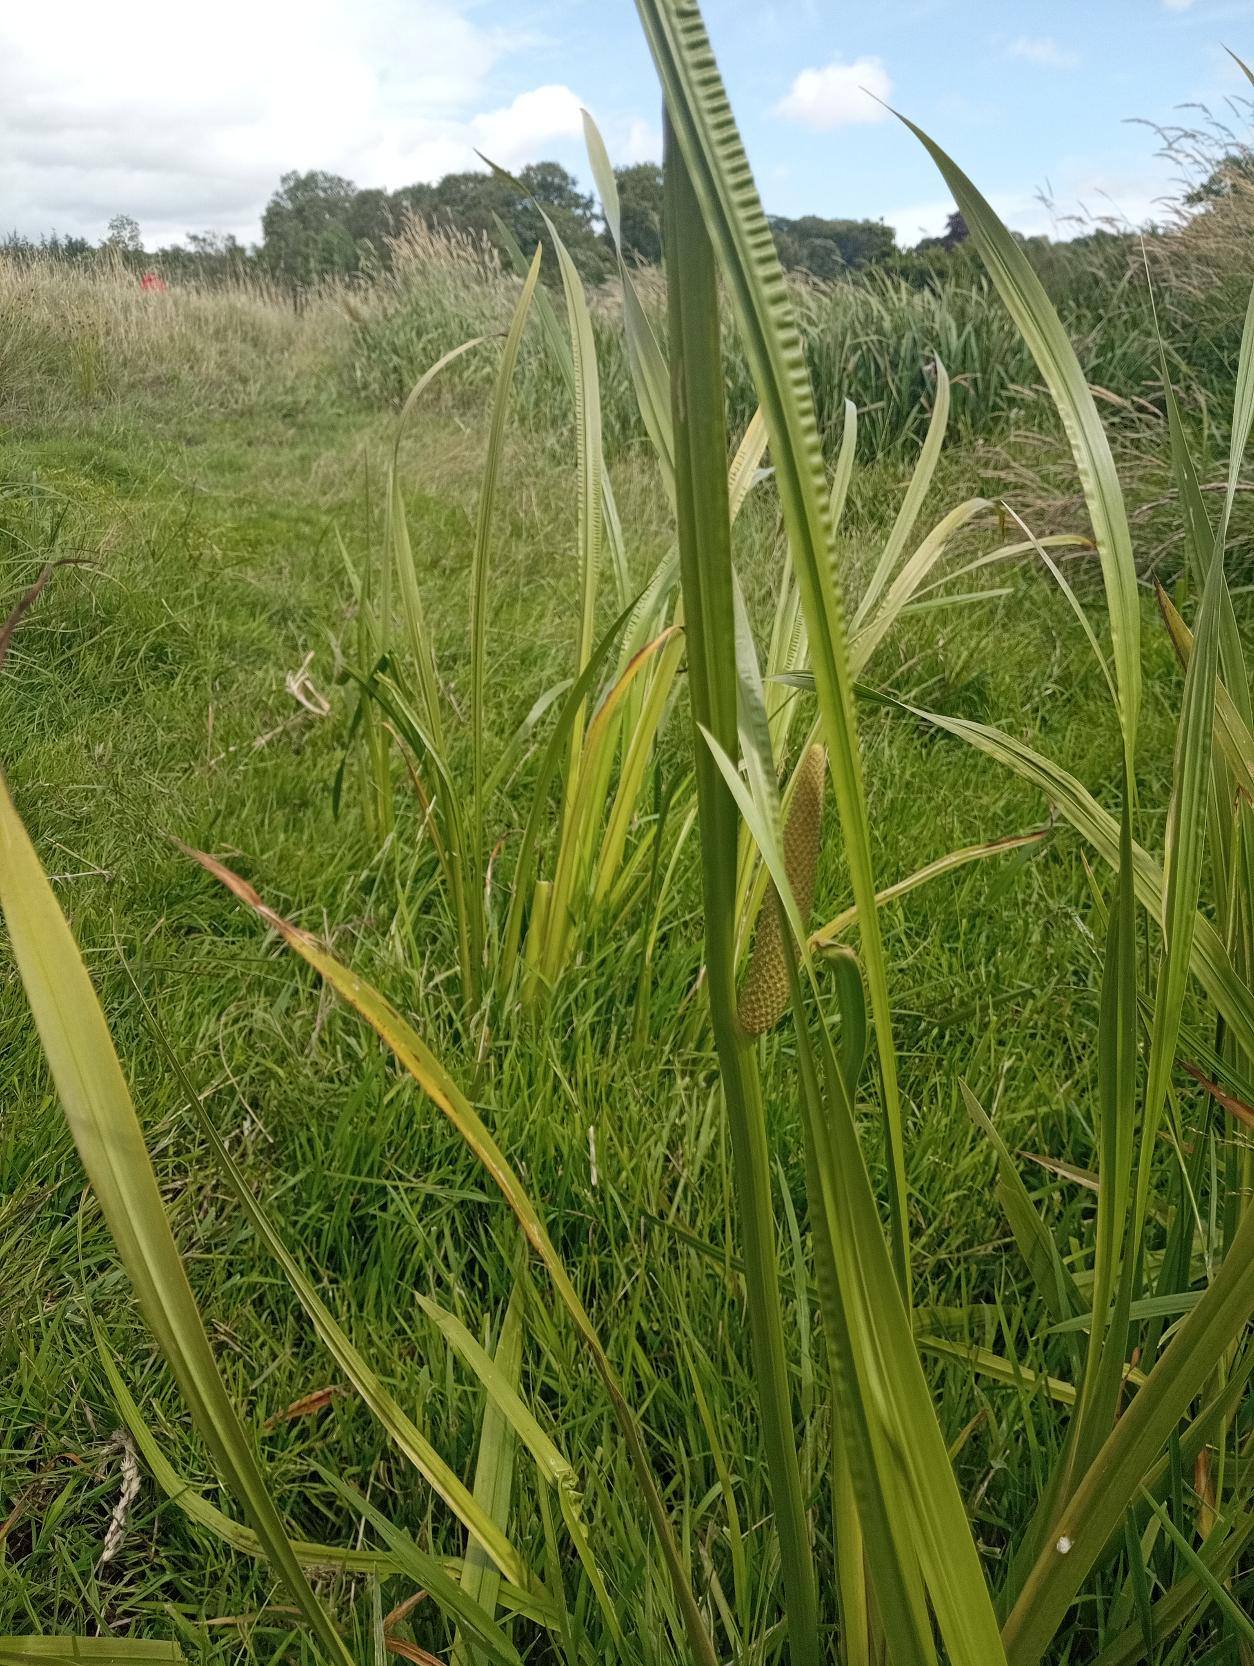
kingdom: Plantae
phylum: Tracheophyta
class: Liliopsida
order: Acorales
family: Acoraceae
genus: Acorus
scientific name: Acorus calamus
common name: Kalmus
